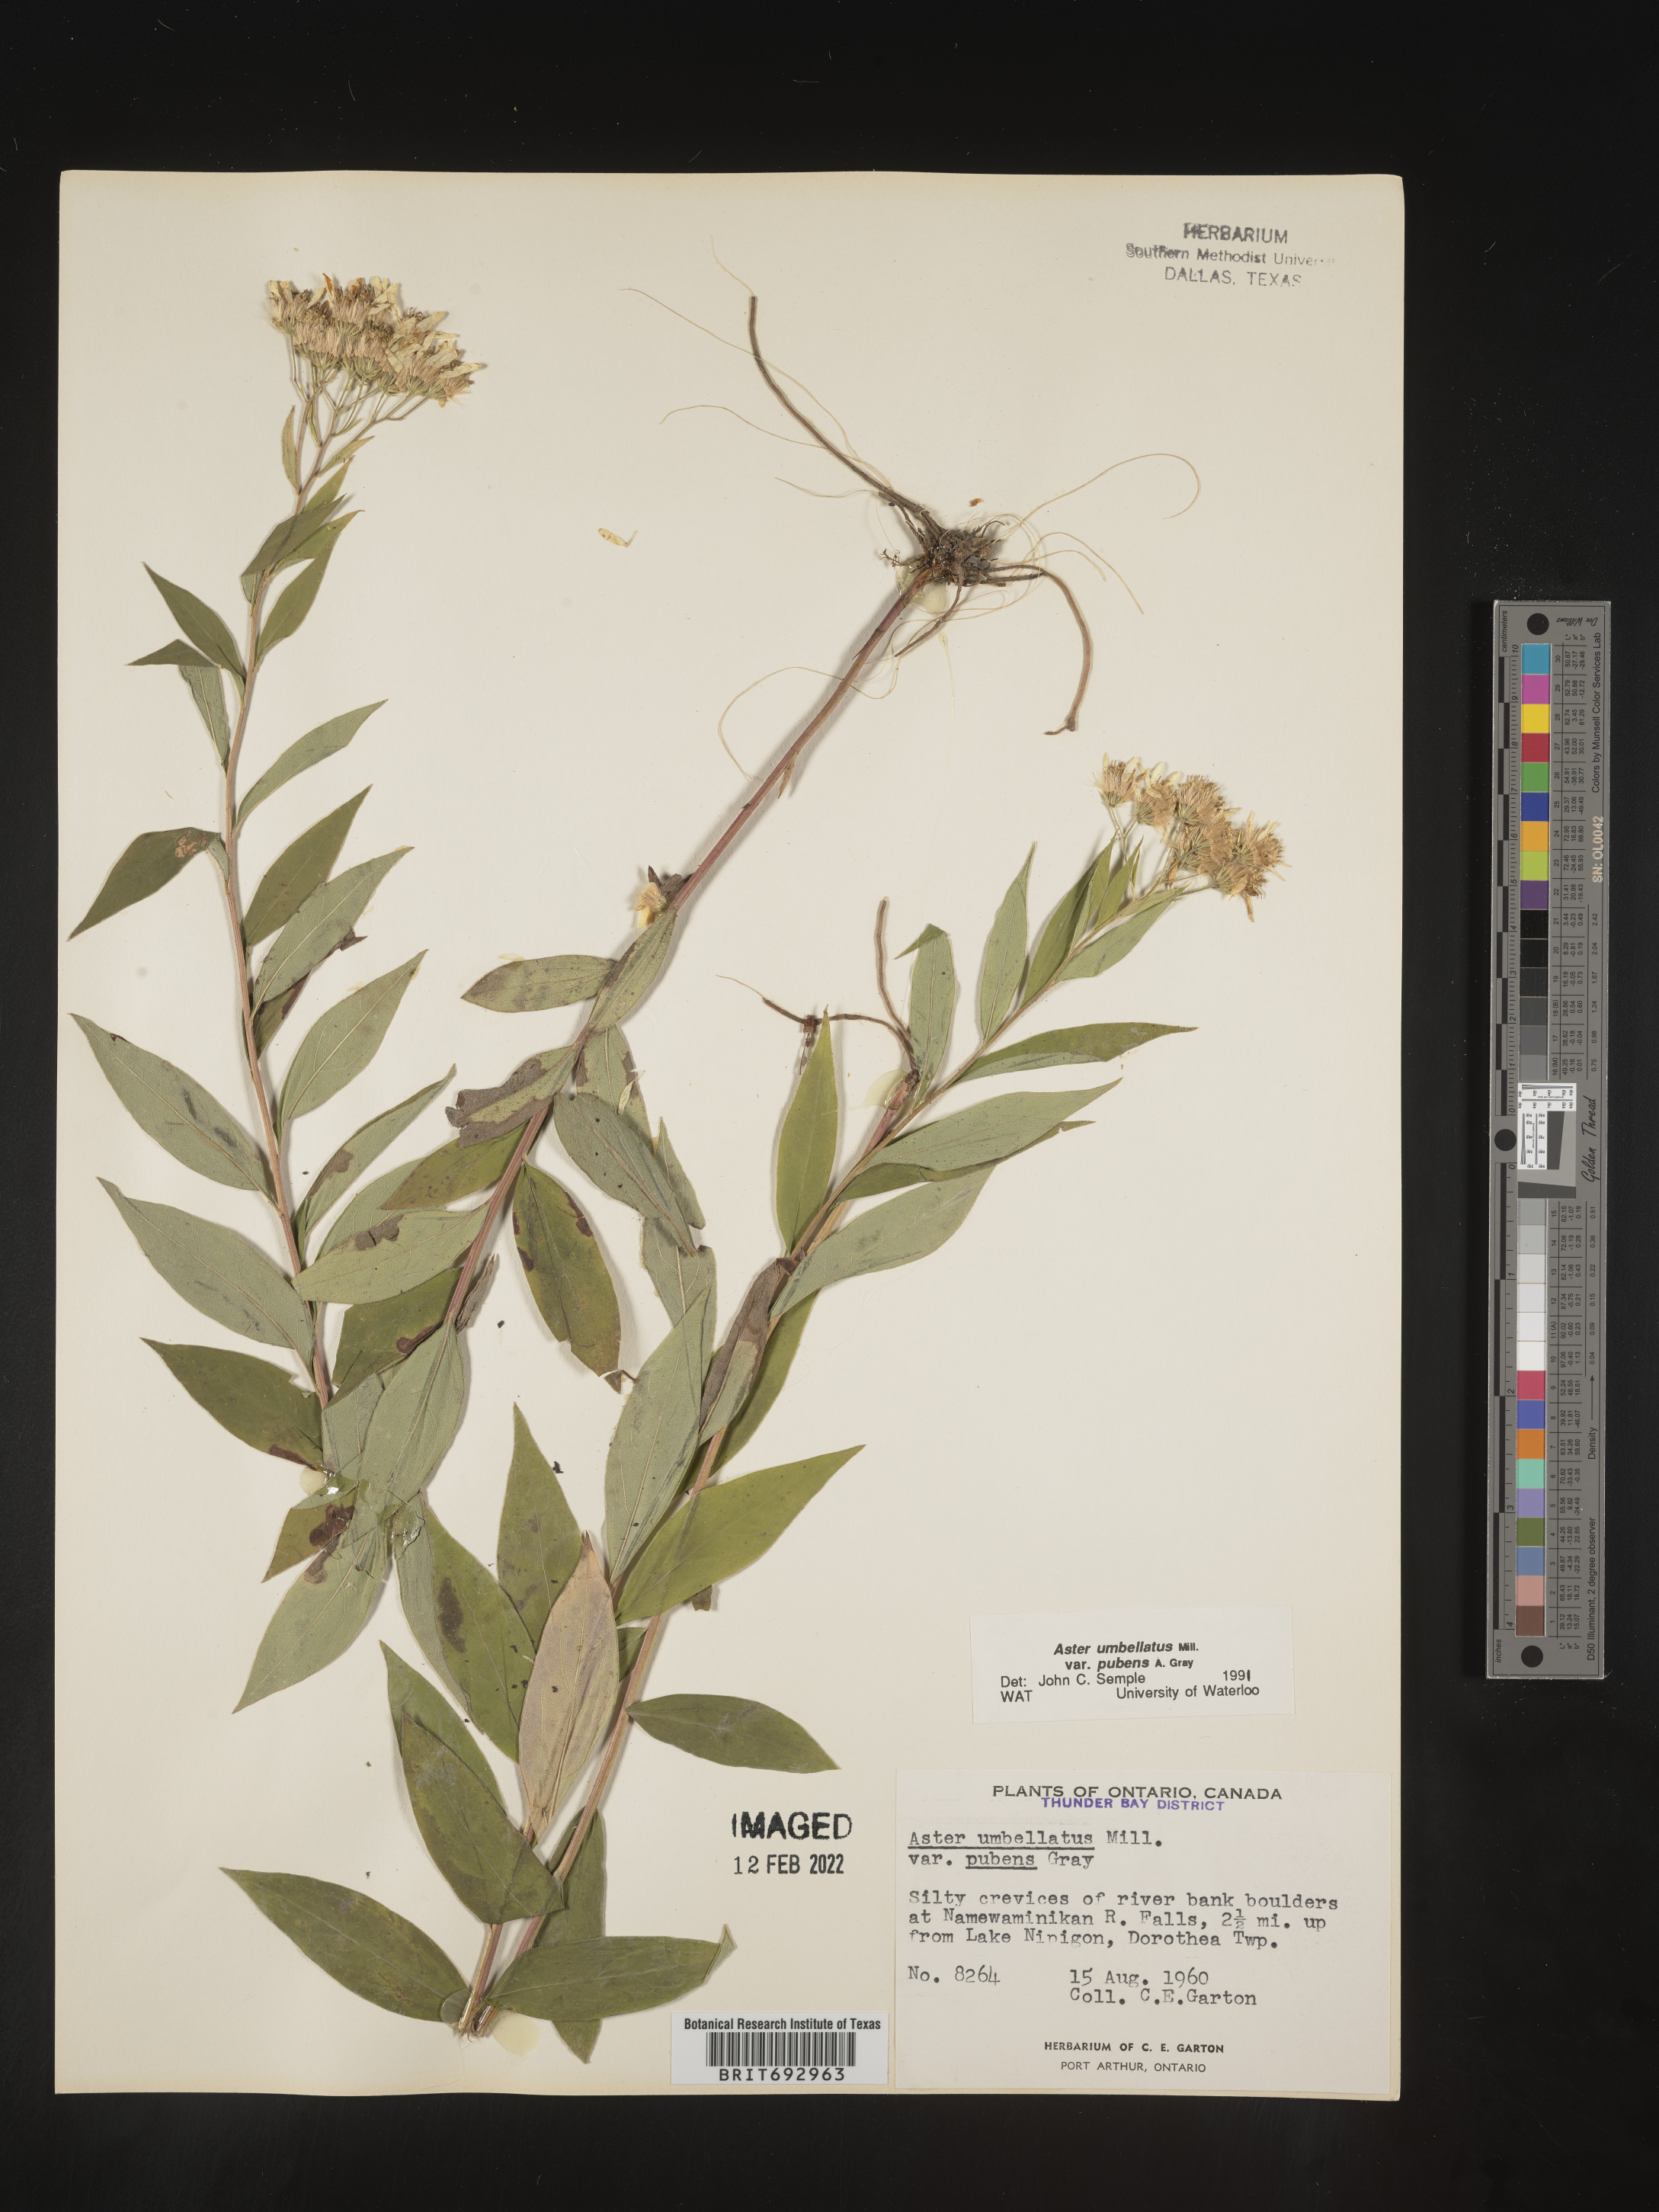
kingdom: Plantae
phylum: Tracheophyta
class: Magnoliopsida
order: Asterales
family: Asteraceae
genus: Doellingeria
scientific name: Doellingeria umbellata
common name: Flat-top white aster
